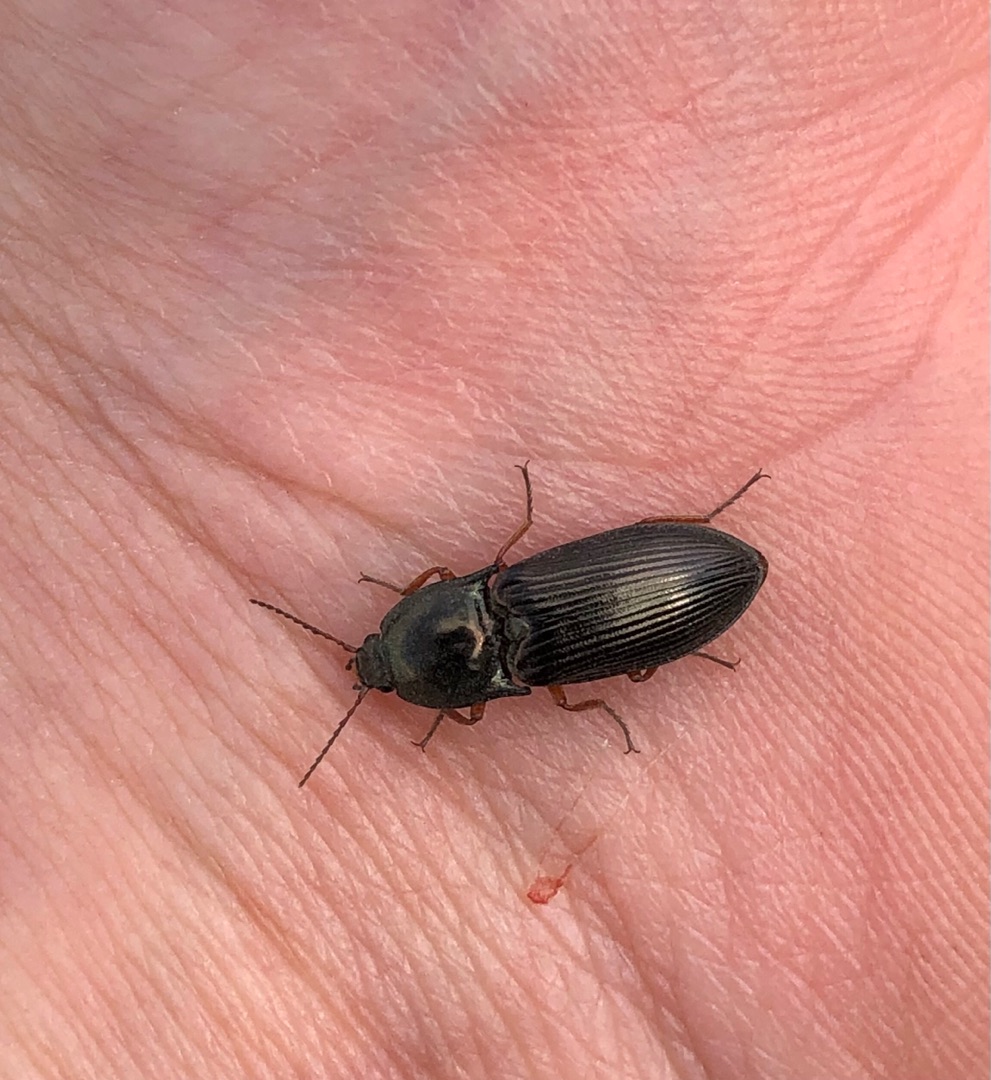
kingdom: Animalia
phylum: Arthropoda
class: Insecta
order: Coleoptera
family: Elateridae
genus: Selatosomus
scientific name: Selatosomus aeneus
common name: Kobbersmælder
